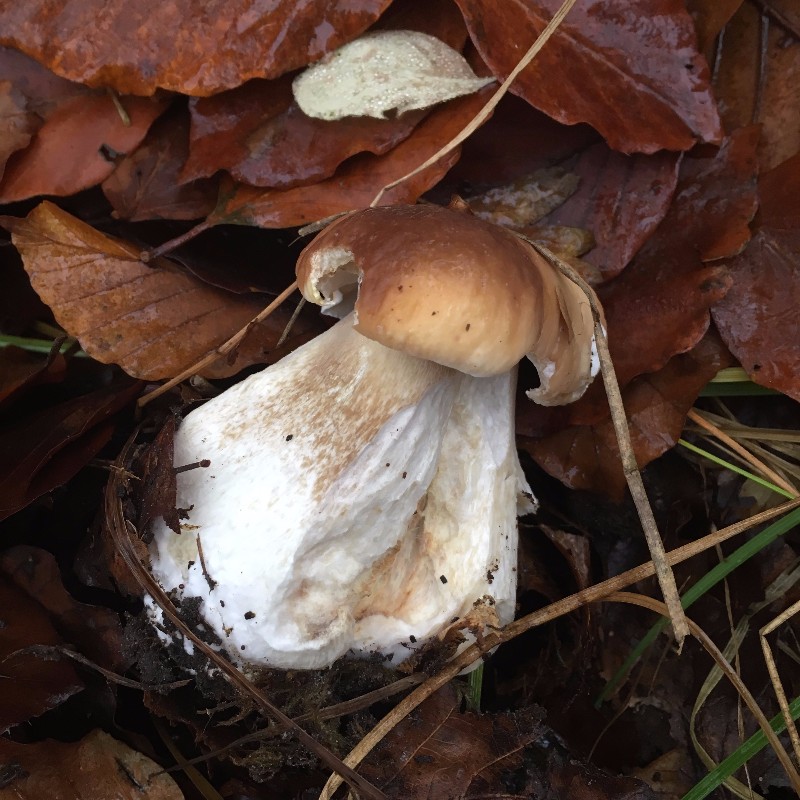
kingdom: Fungi
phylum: Basidiomycota
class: Agaricomycetes
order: Boletales
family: Boletaceae
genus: Boletus
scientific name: Boletus edulis
